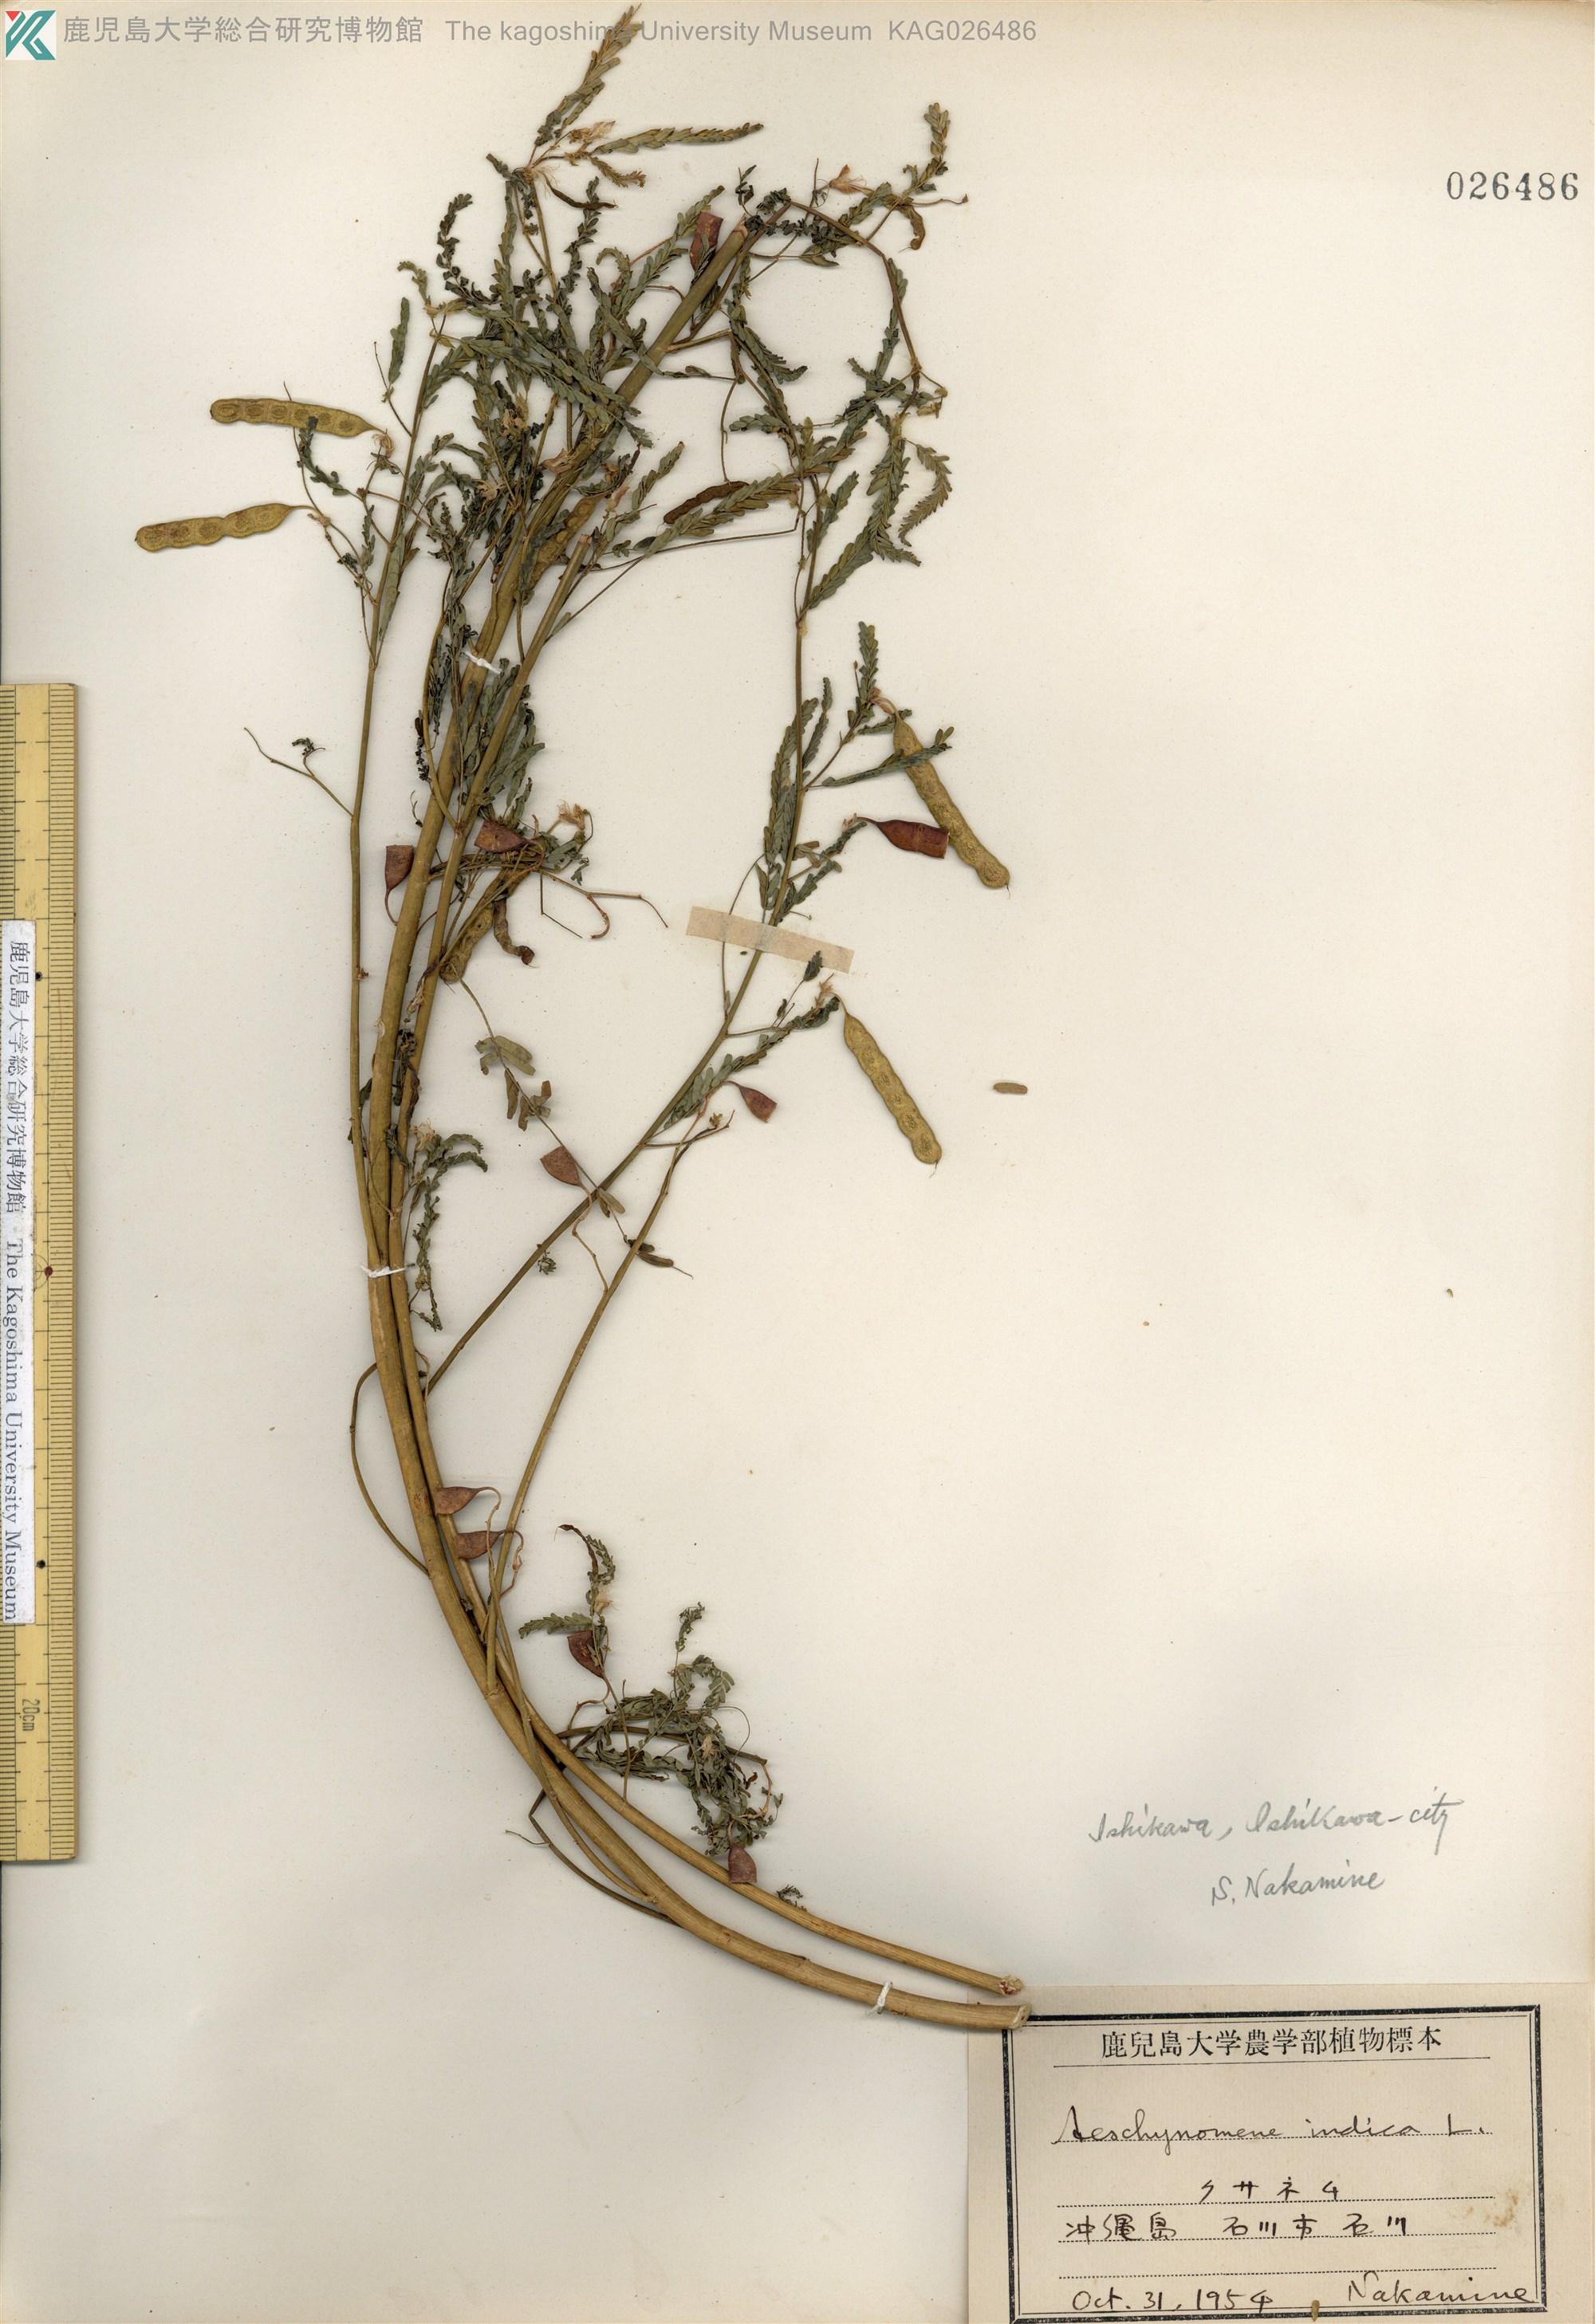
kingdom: Plantae
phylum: Tracheophyta
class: Magnoliopsida
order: Fabales
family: Fabaceae
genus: Aeschynomene
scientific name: Aeschynomene indica
